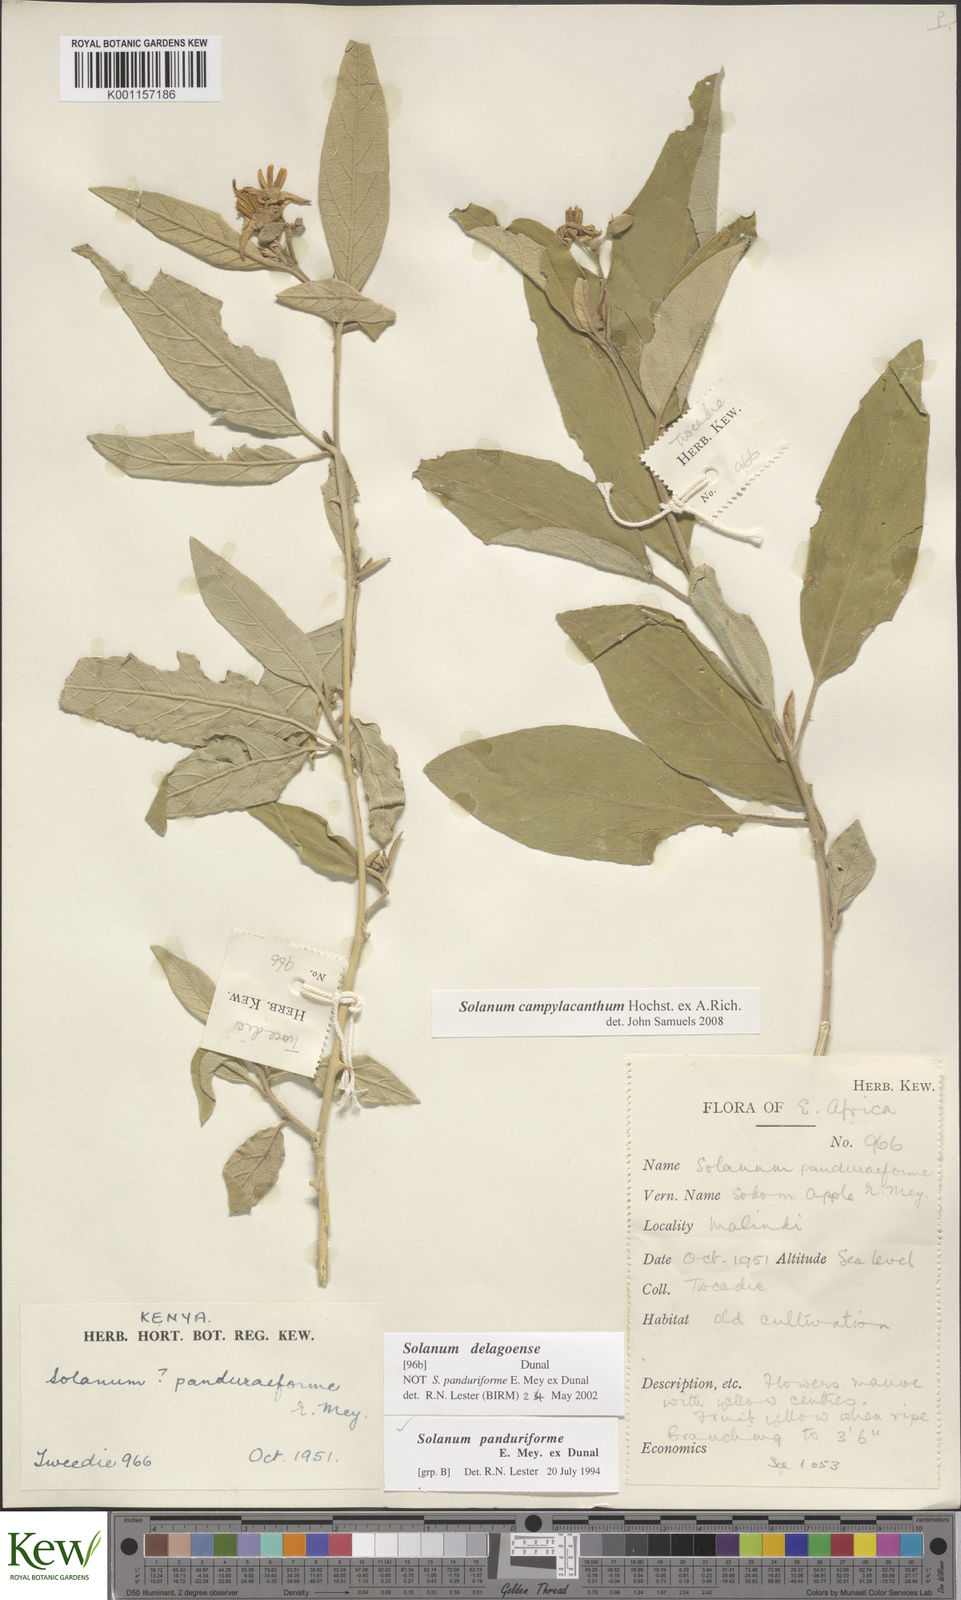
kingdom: Plantae
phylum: Tracheophyta
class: Magnoliopsida
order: Solanales
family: Solanaceae
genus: Solanum
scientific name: Solanum campylacanthum
